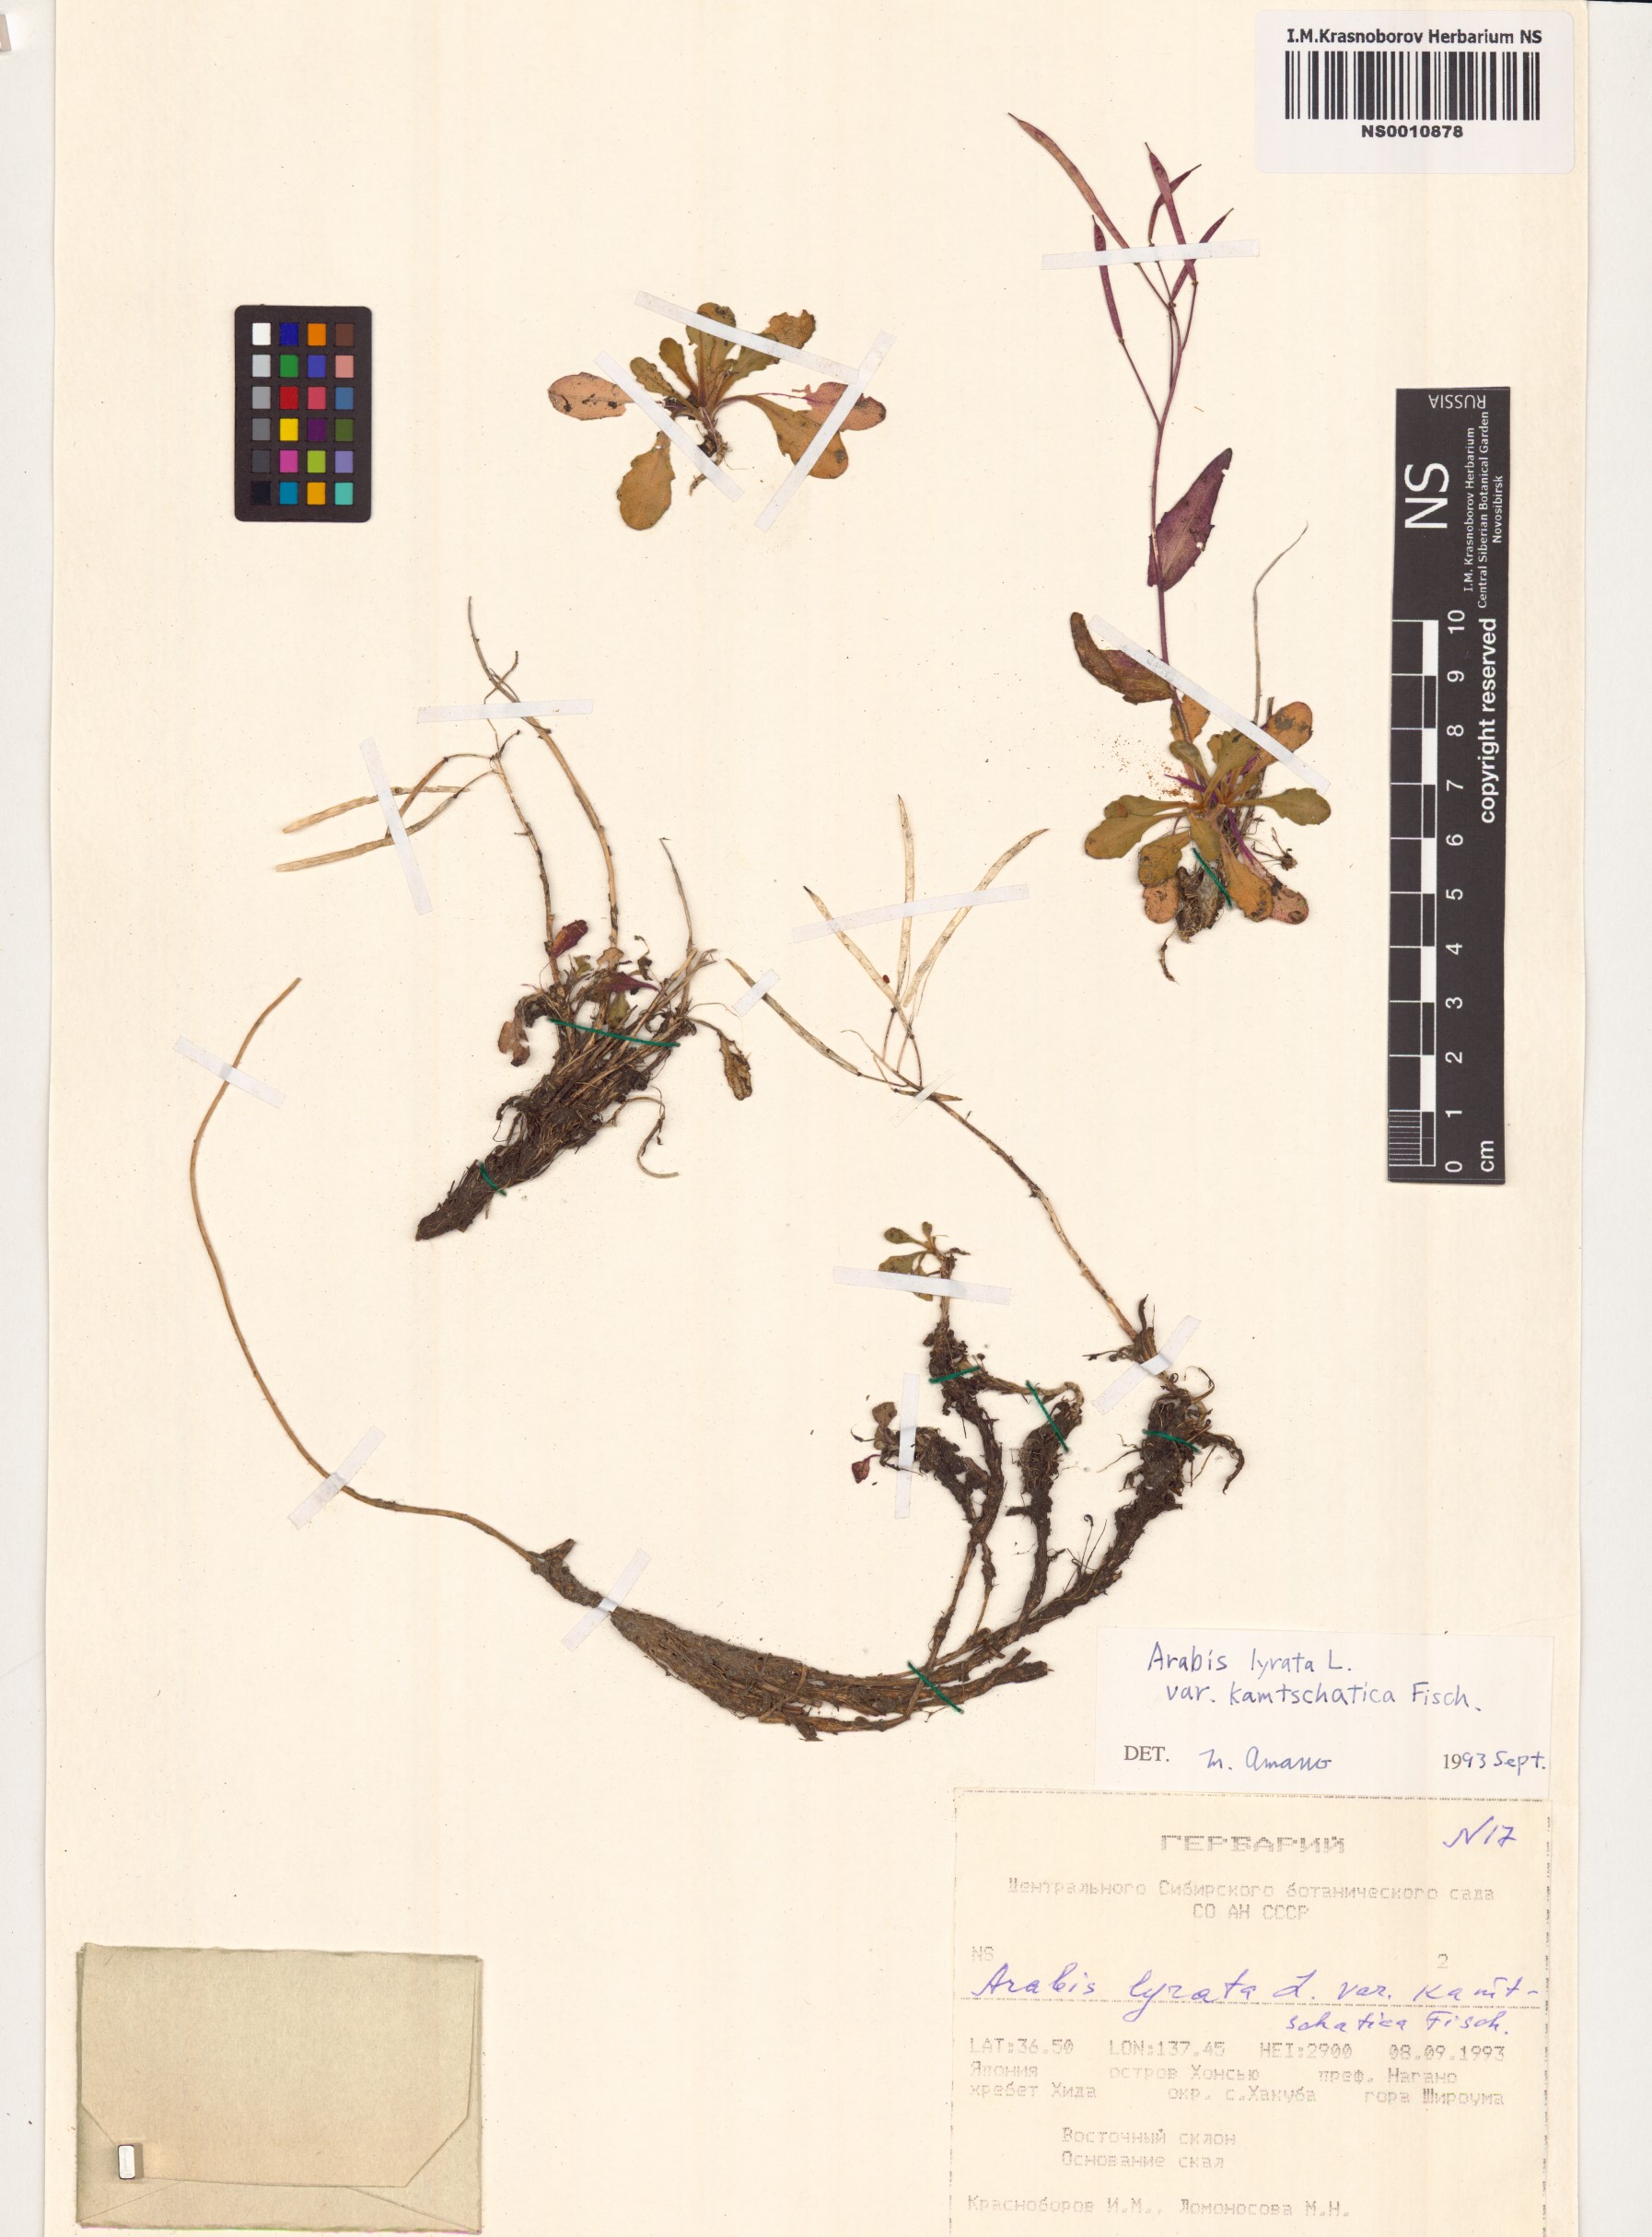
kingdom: Plantae
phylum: Tracheophyta
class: Magnoliopsida
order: Brassicales
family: Brassicaceae
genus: Arabidopsis
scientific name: Arabidopsis lyrata
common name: Lyrate rockcress
